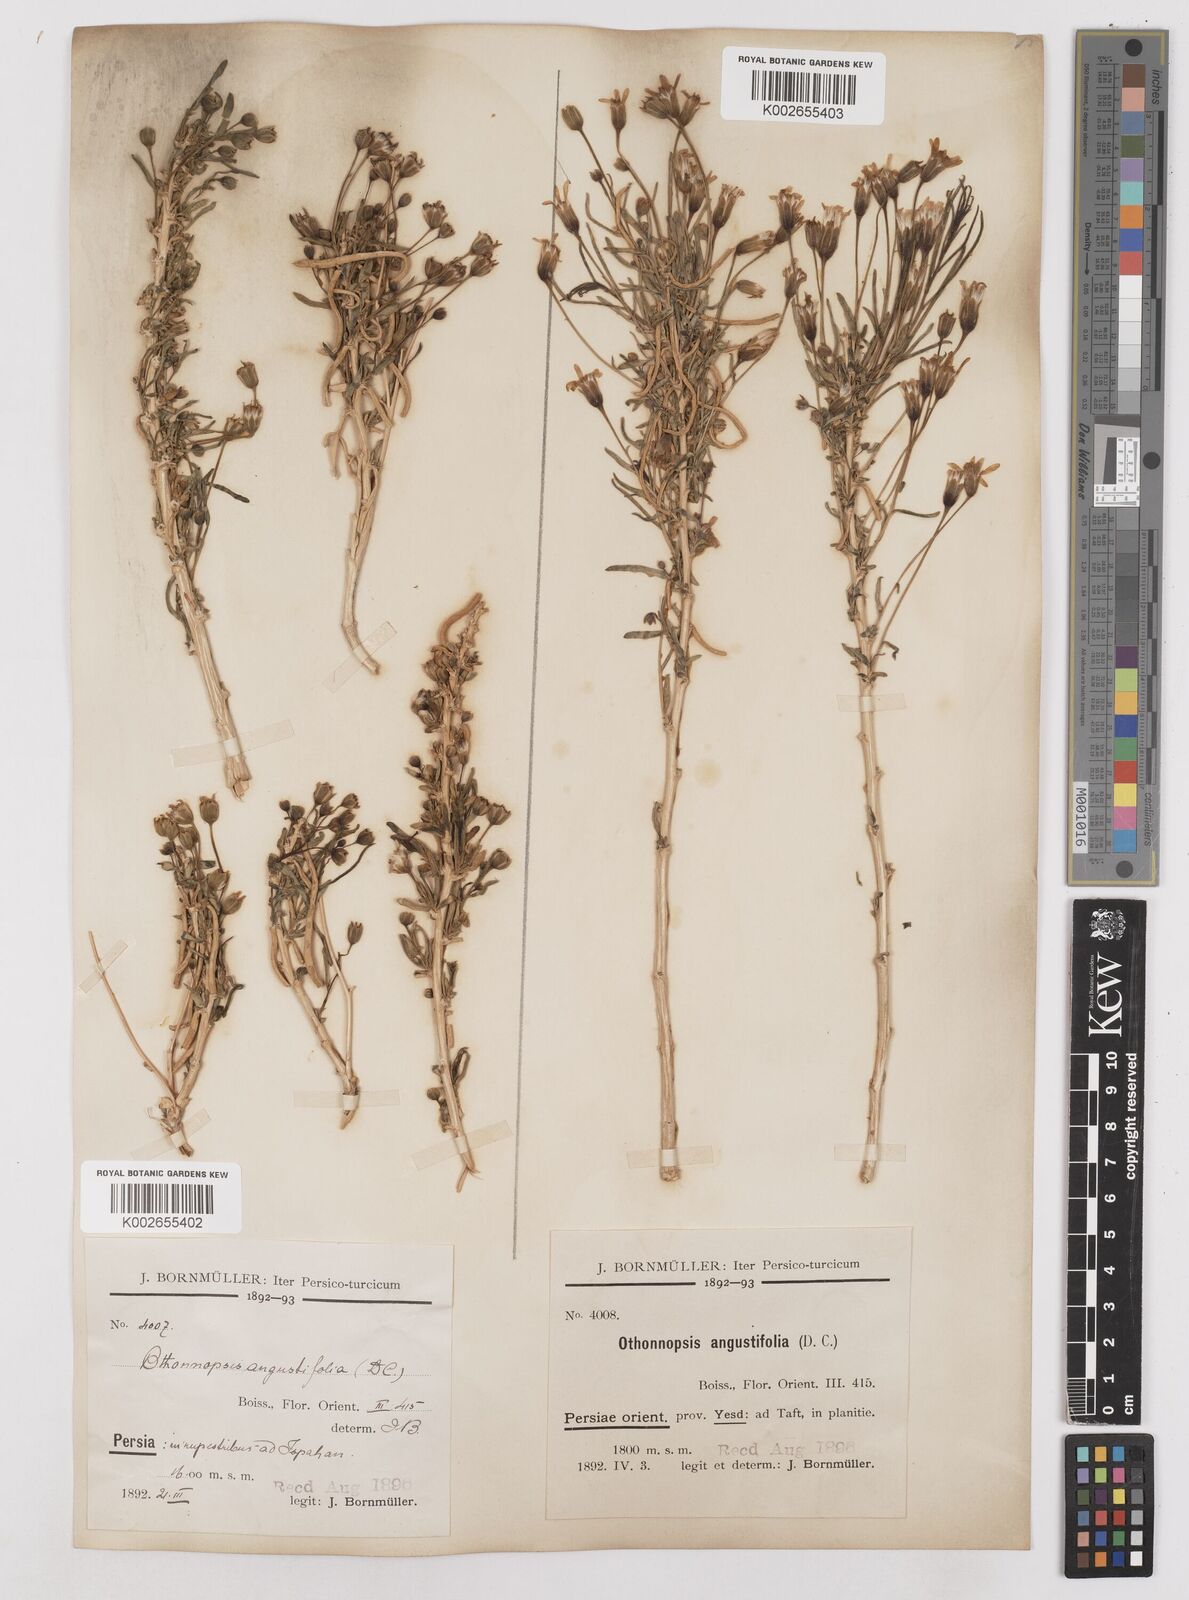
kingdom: Plantae
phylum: Tracheophyta
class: Magnoliopsida
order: Asterales
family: Asteraceae
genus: Hertia
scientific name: Hertia angustifolia
